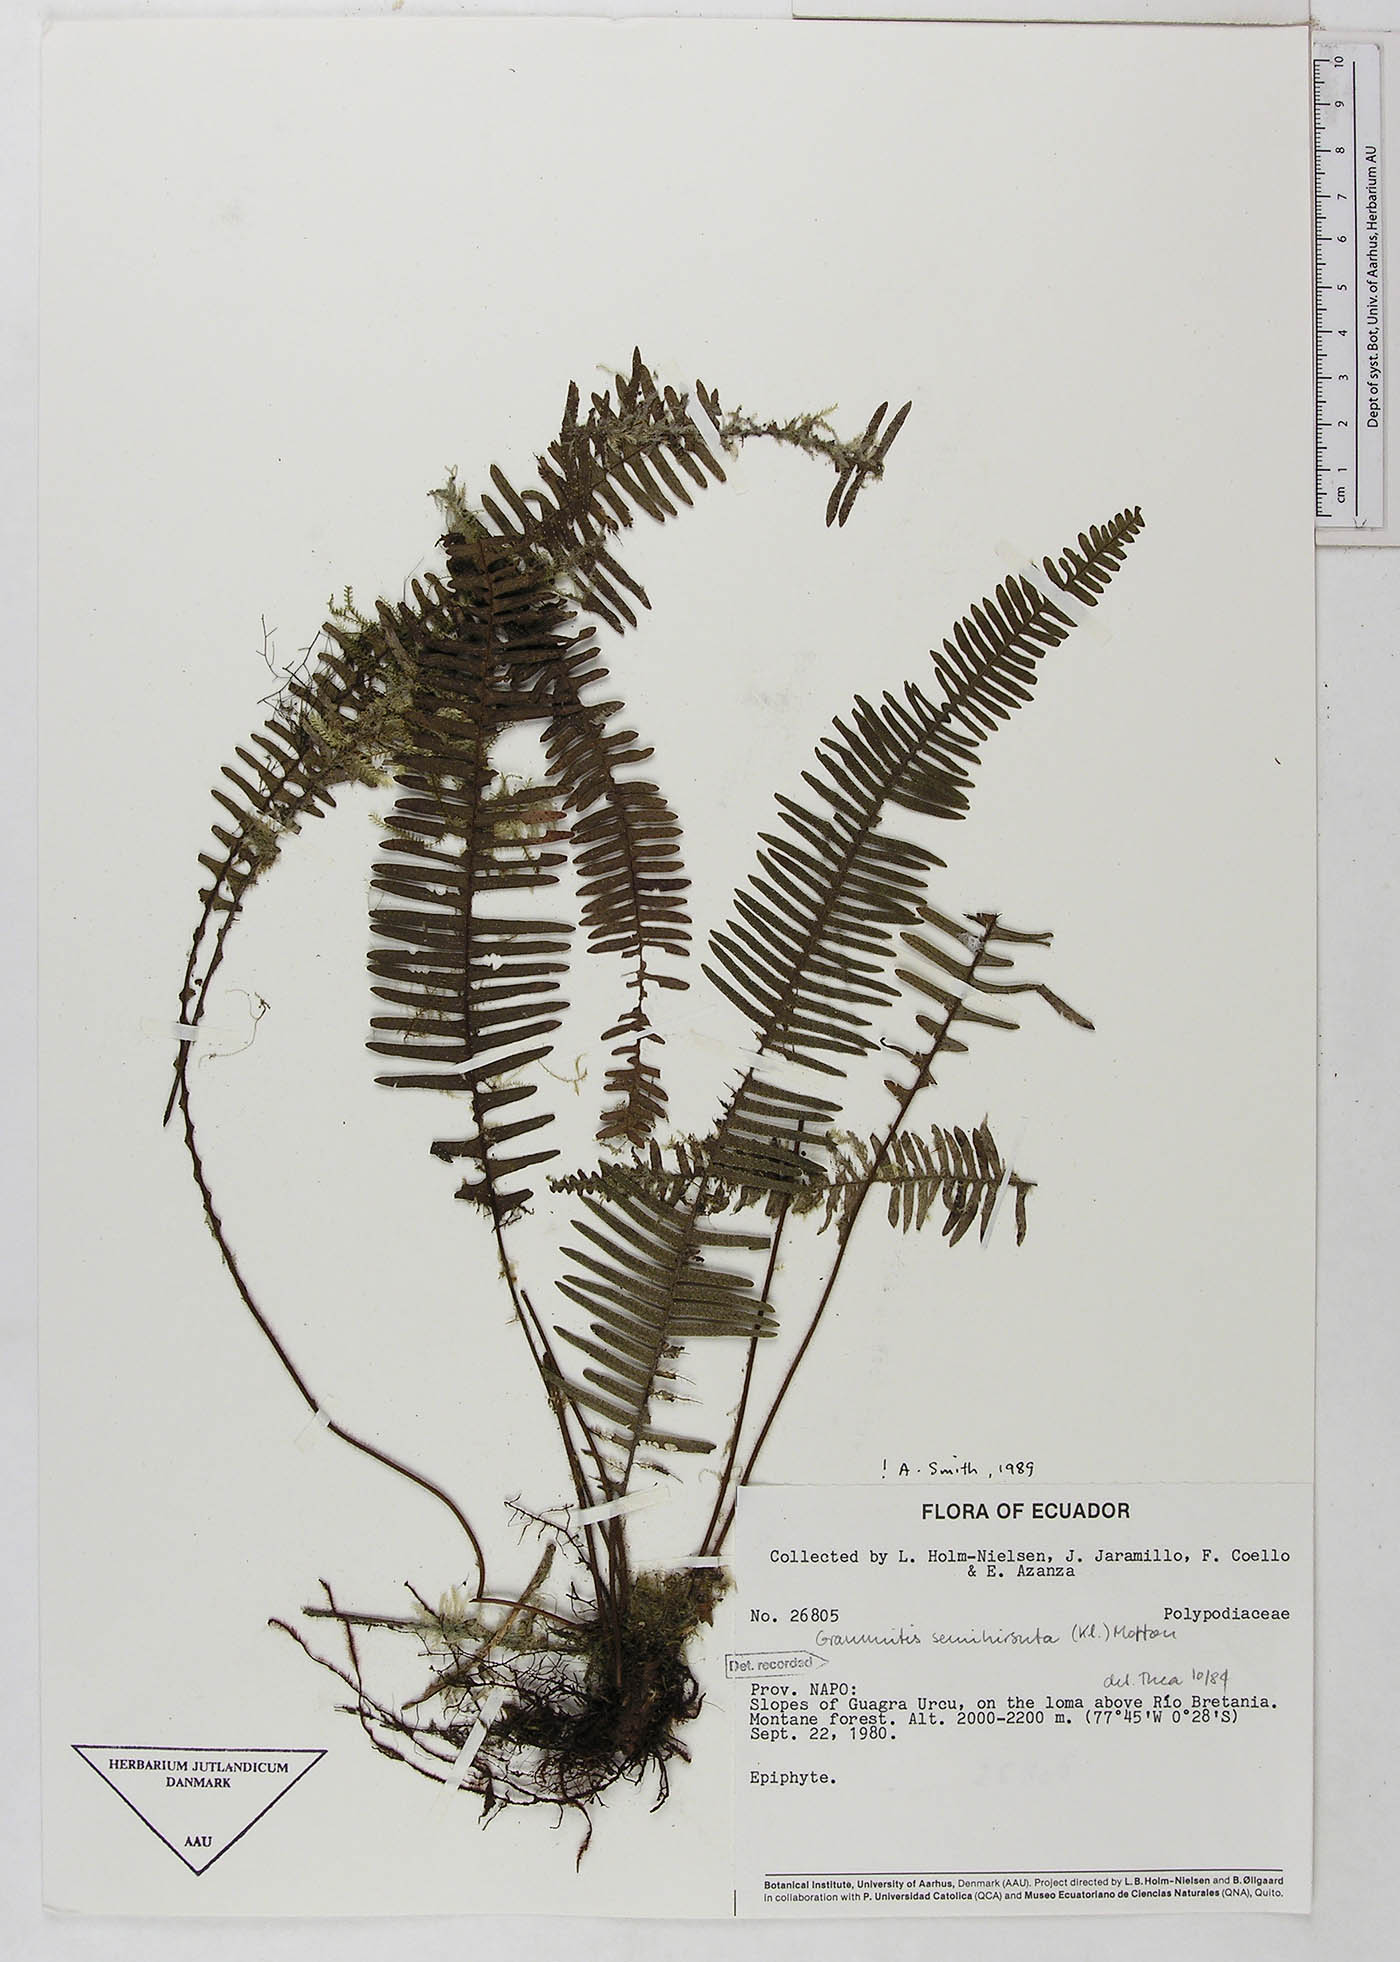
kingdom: Plantae
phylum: Tracheophyta
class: Polypodiopsida
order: Polypodiales
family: Polypodiaceae
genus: Mycopteris
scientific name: Mycopteris semihirsuta
